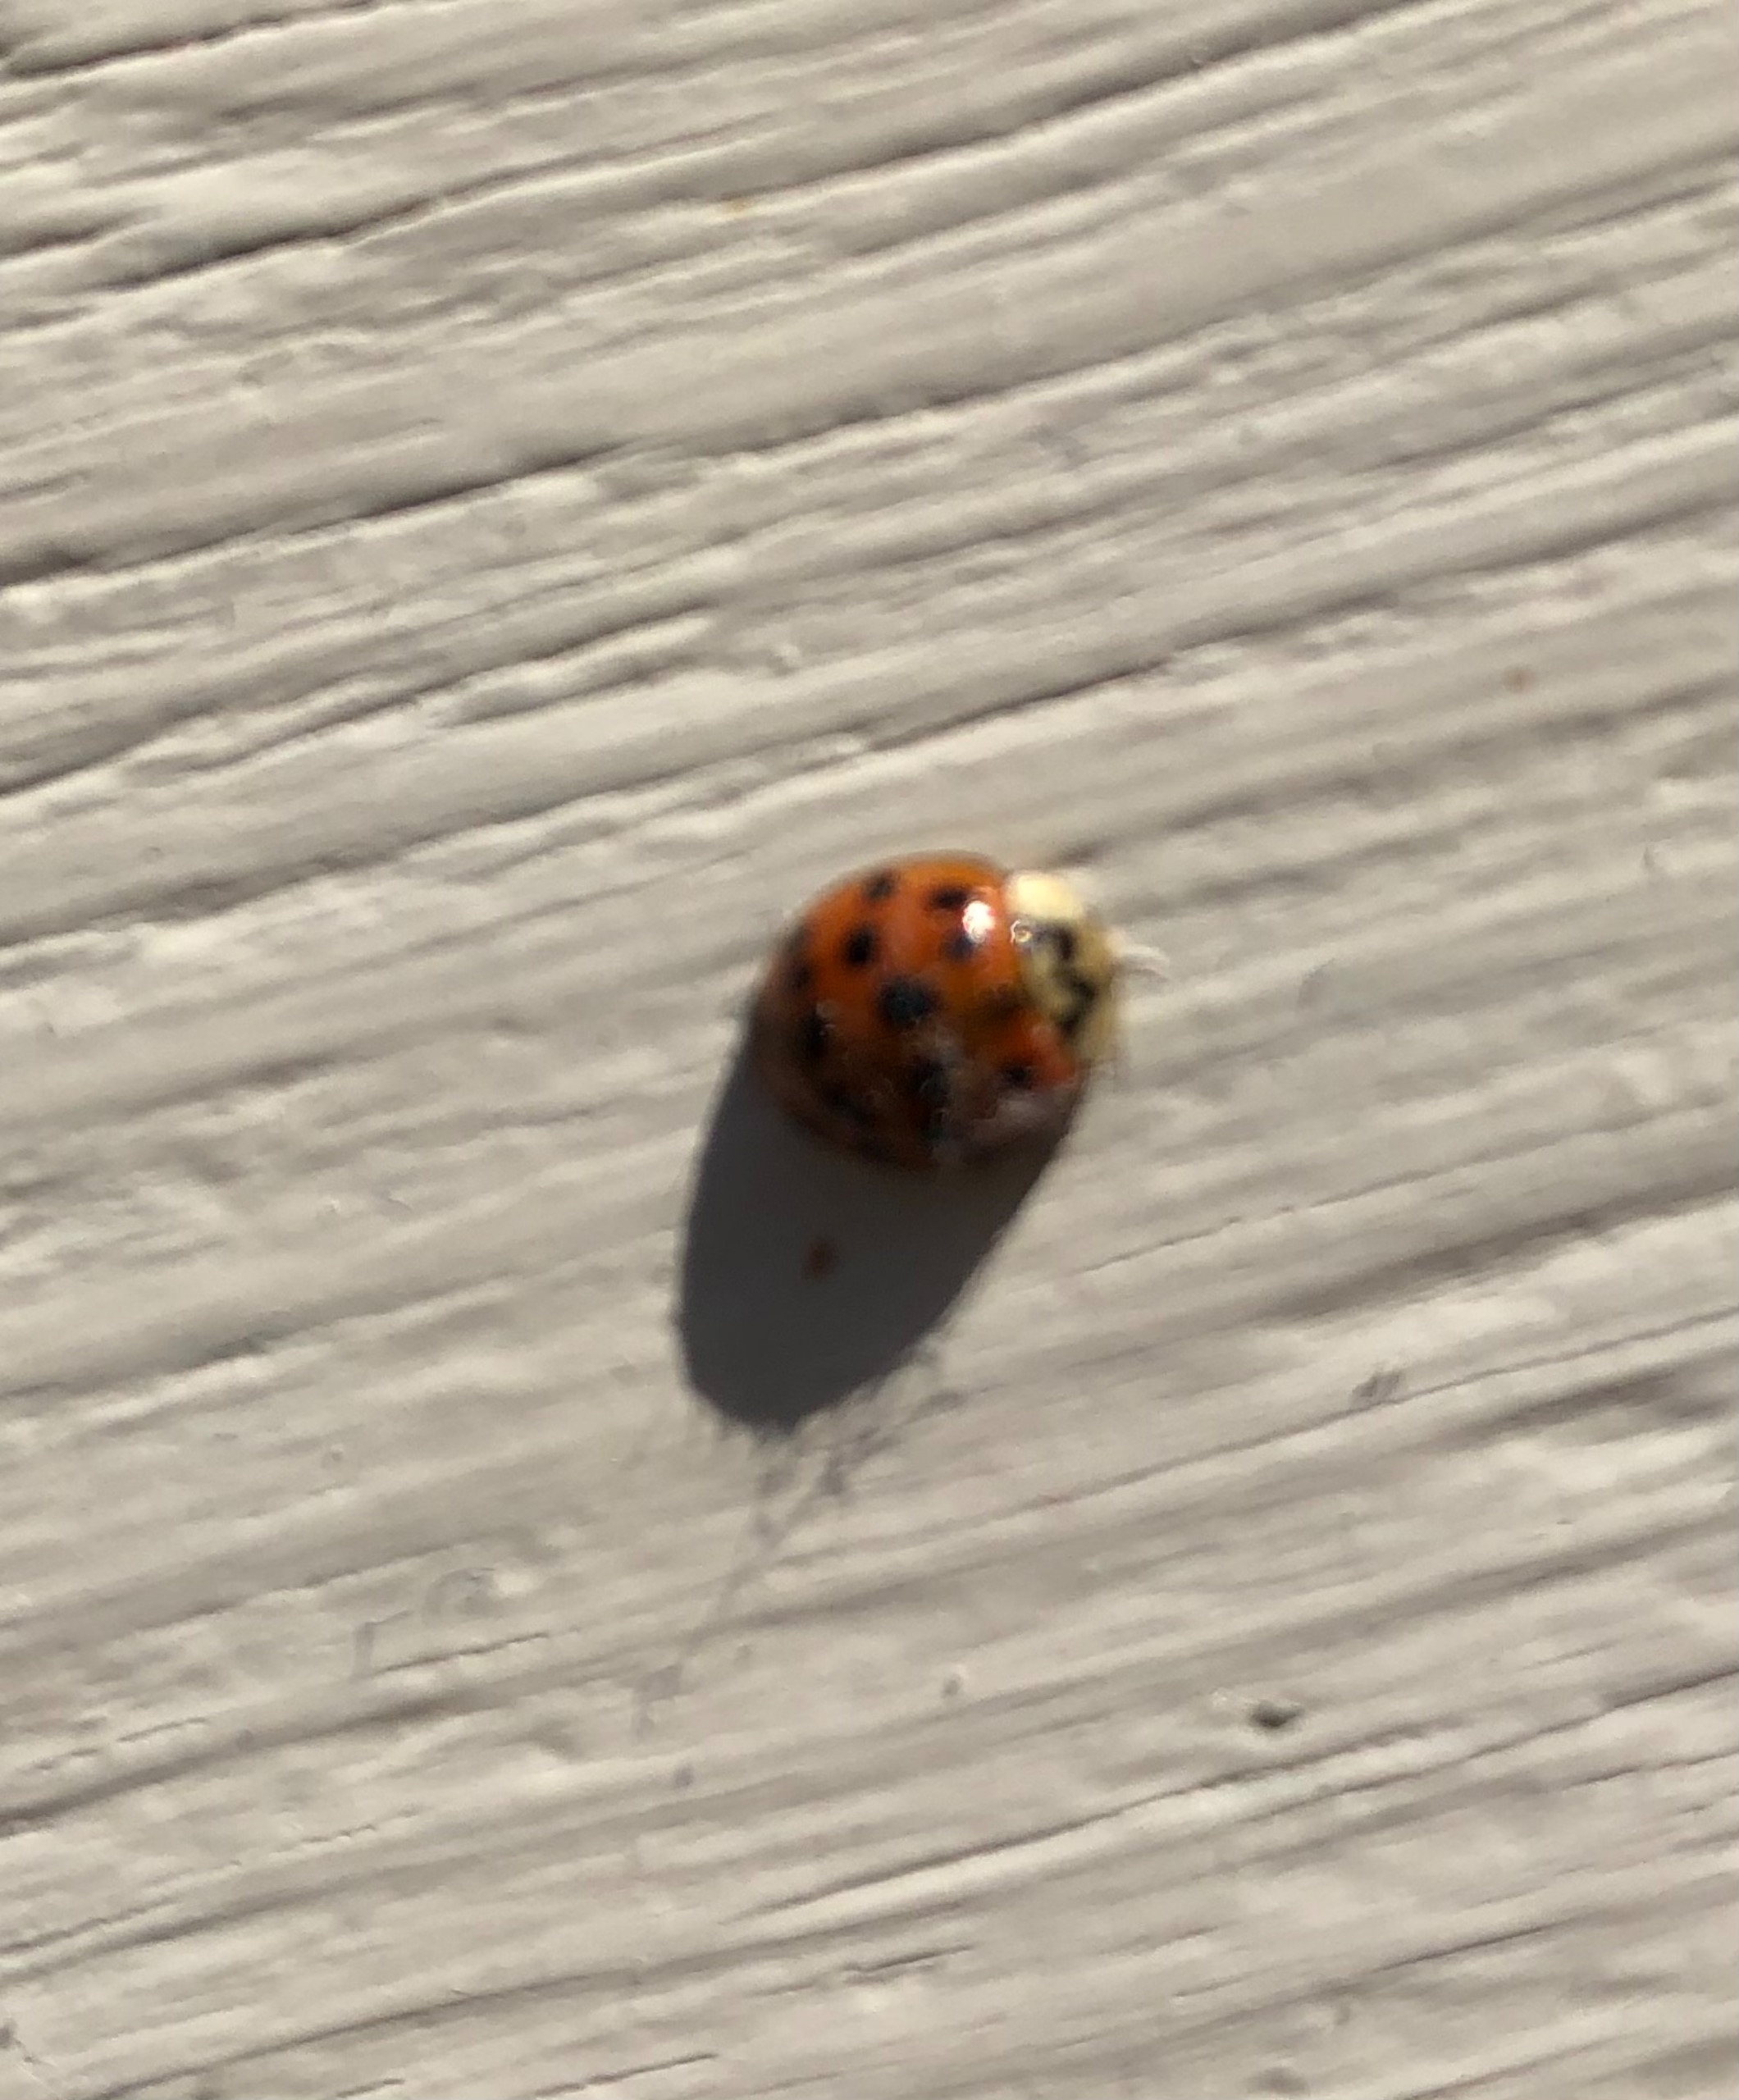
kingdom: Animalia
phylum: Arthropoda
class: Insecta
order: Coleoptera
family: Coccinellidae
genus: Harmonia
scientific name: Harmonia axyridis
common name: Harlekinmariehøne
